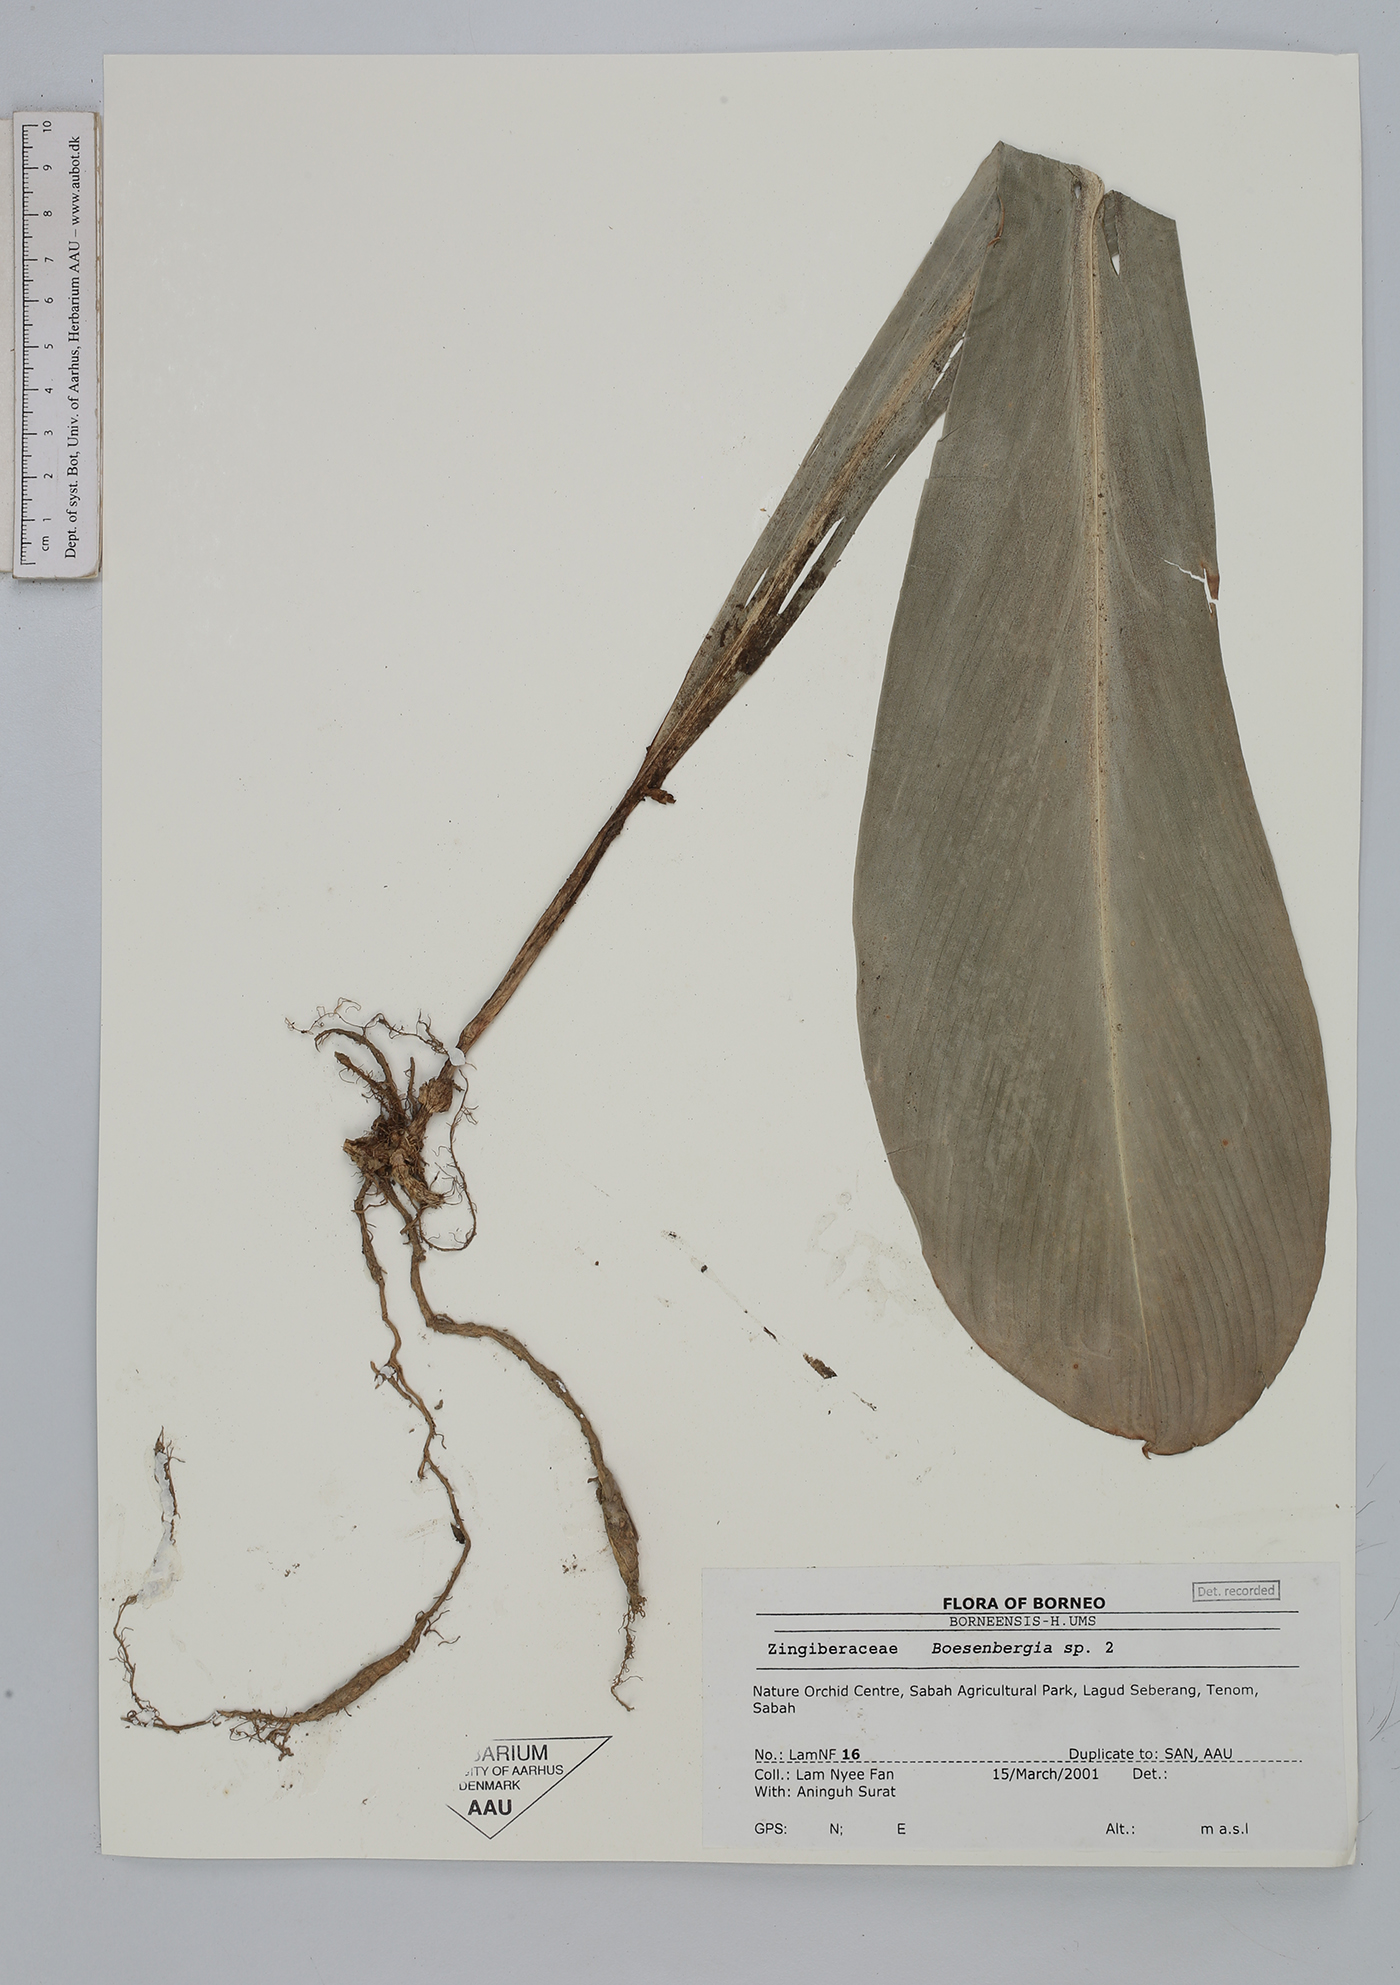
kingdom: Plantae
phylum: Tracheophyta
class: Liliopsida
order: Zingiberales
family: Zingiberaceae
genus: Boesenbergia
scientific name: Boesenbergia
